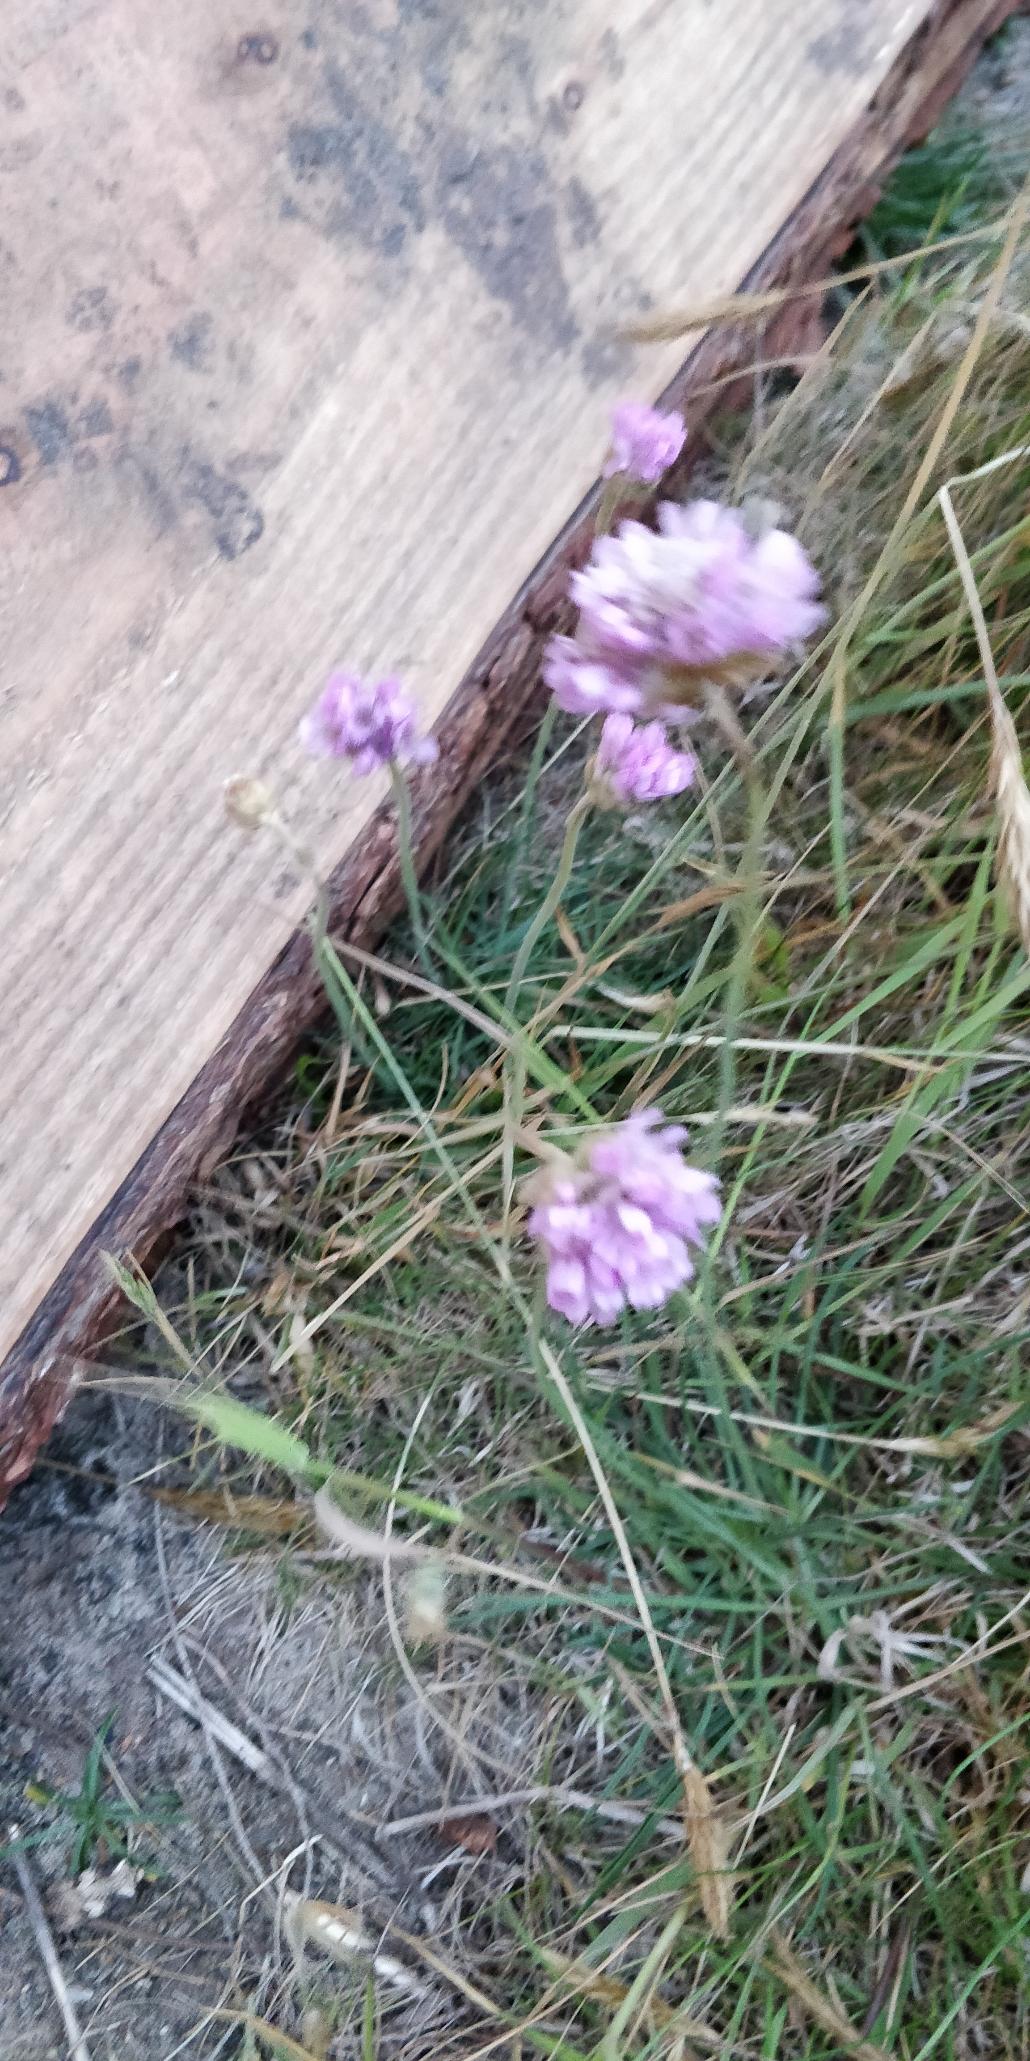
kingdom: Plantae
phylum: Tracheophyta
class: Magnoliopsida
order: Caryophyllales
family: Plumbaginaceae
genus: Armeria
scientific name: Armeria maritima
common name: Engelskgræs
